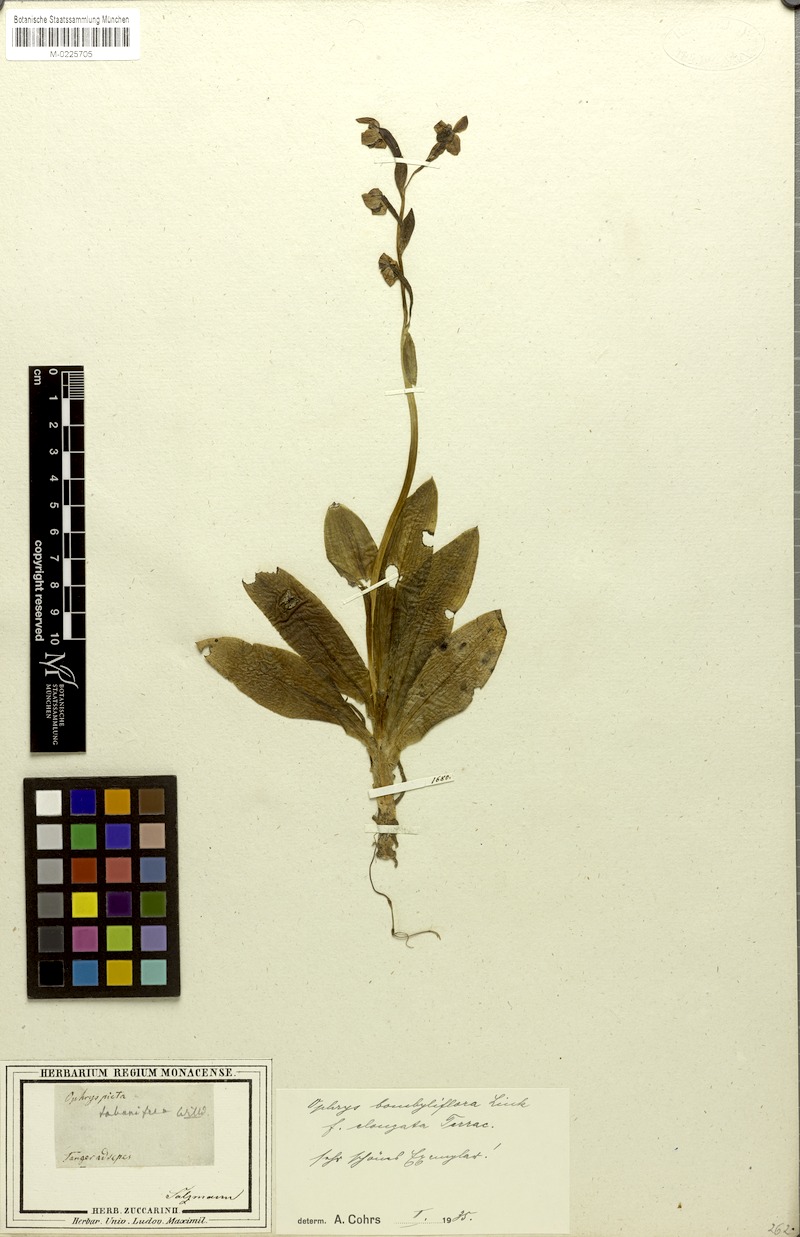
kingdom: Plantae
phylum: Tracheophyta
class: Liliopsida
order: Asparagales
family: Orchidaceae
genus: Ophrys
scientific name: Ophrys bombyliflora
